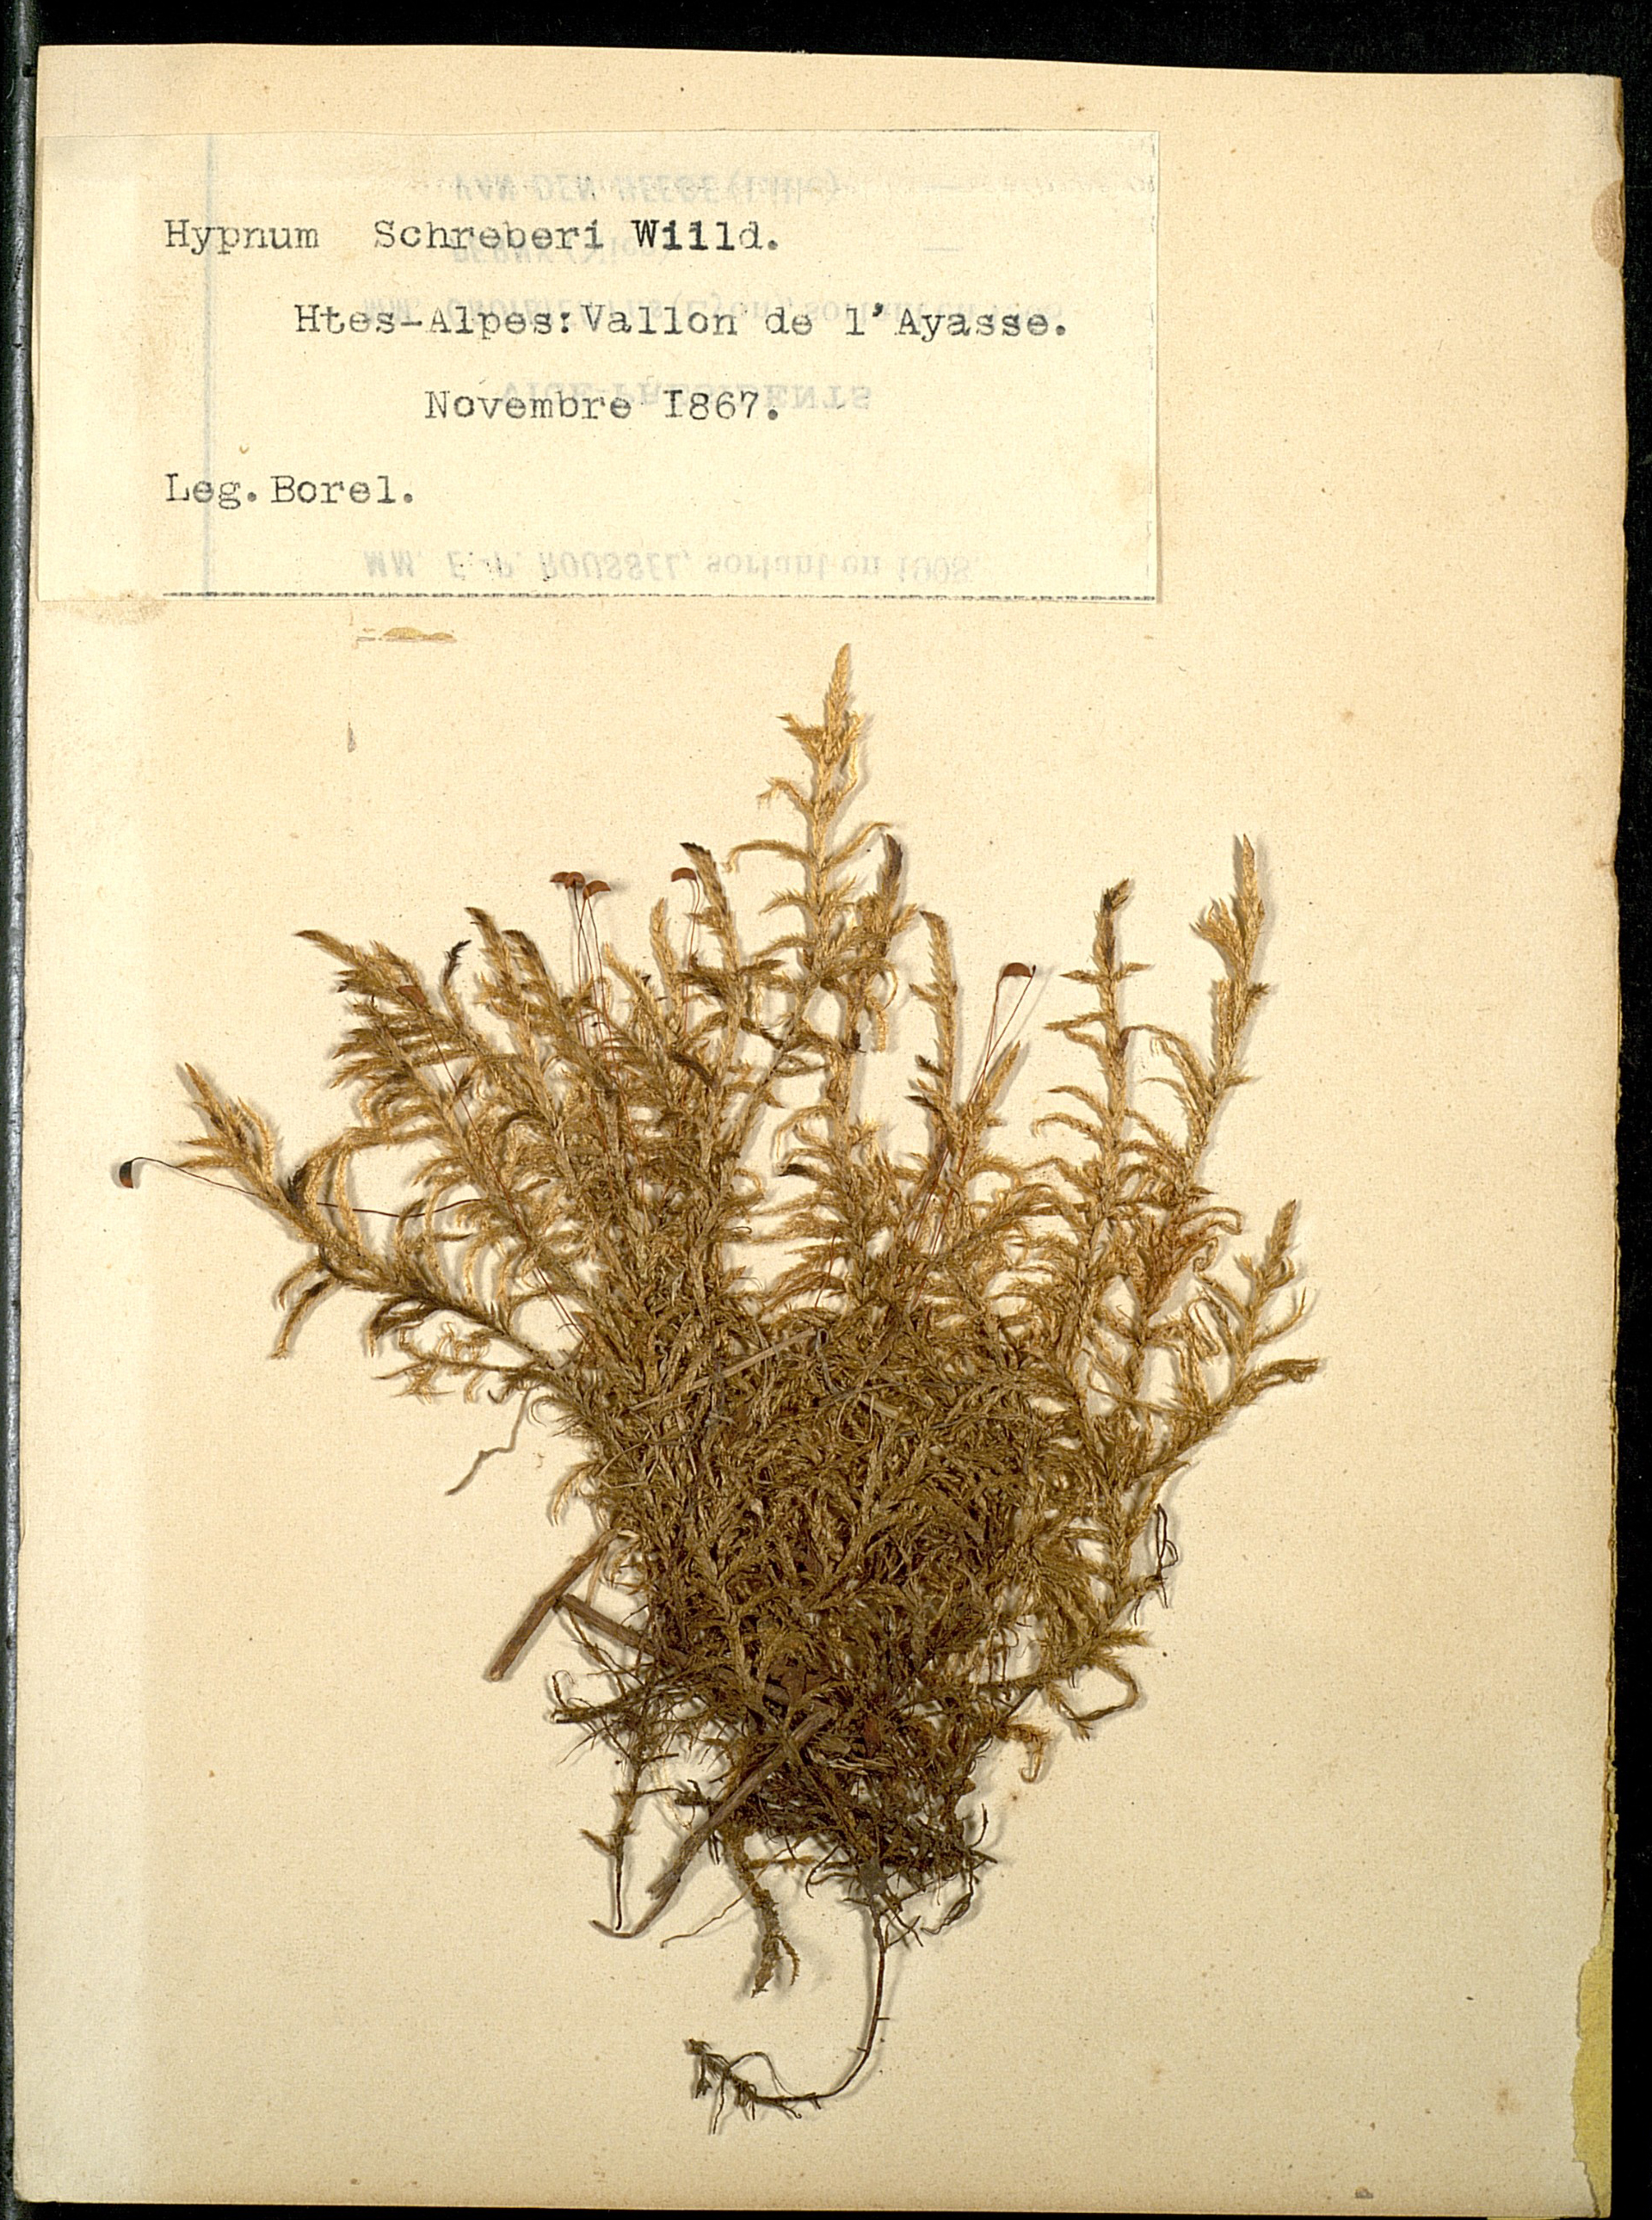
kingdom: Plantae
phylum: Bryophyta
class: Bryopsida
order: Hypnales
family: Hylocomiaceae
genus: Pleurozium
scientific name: Pleurozium schreberi
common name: Red-stemmed feather moss
